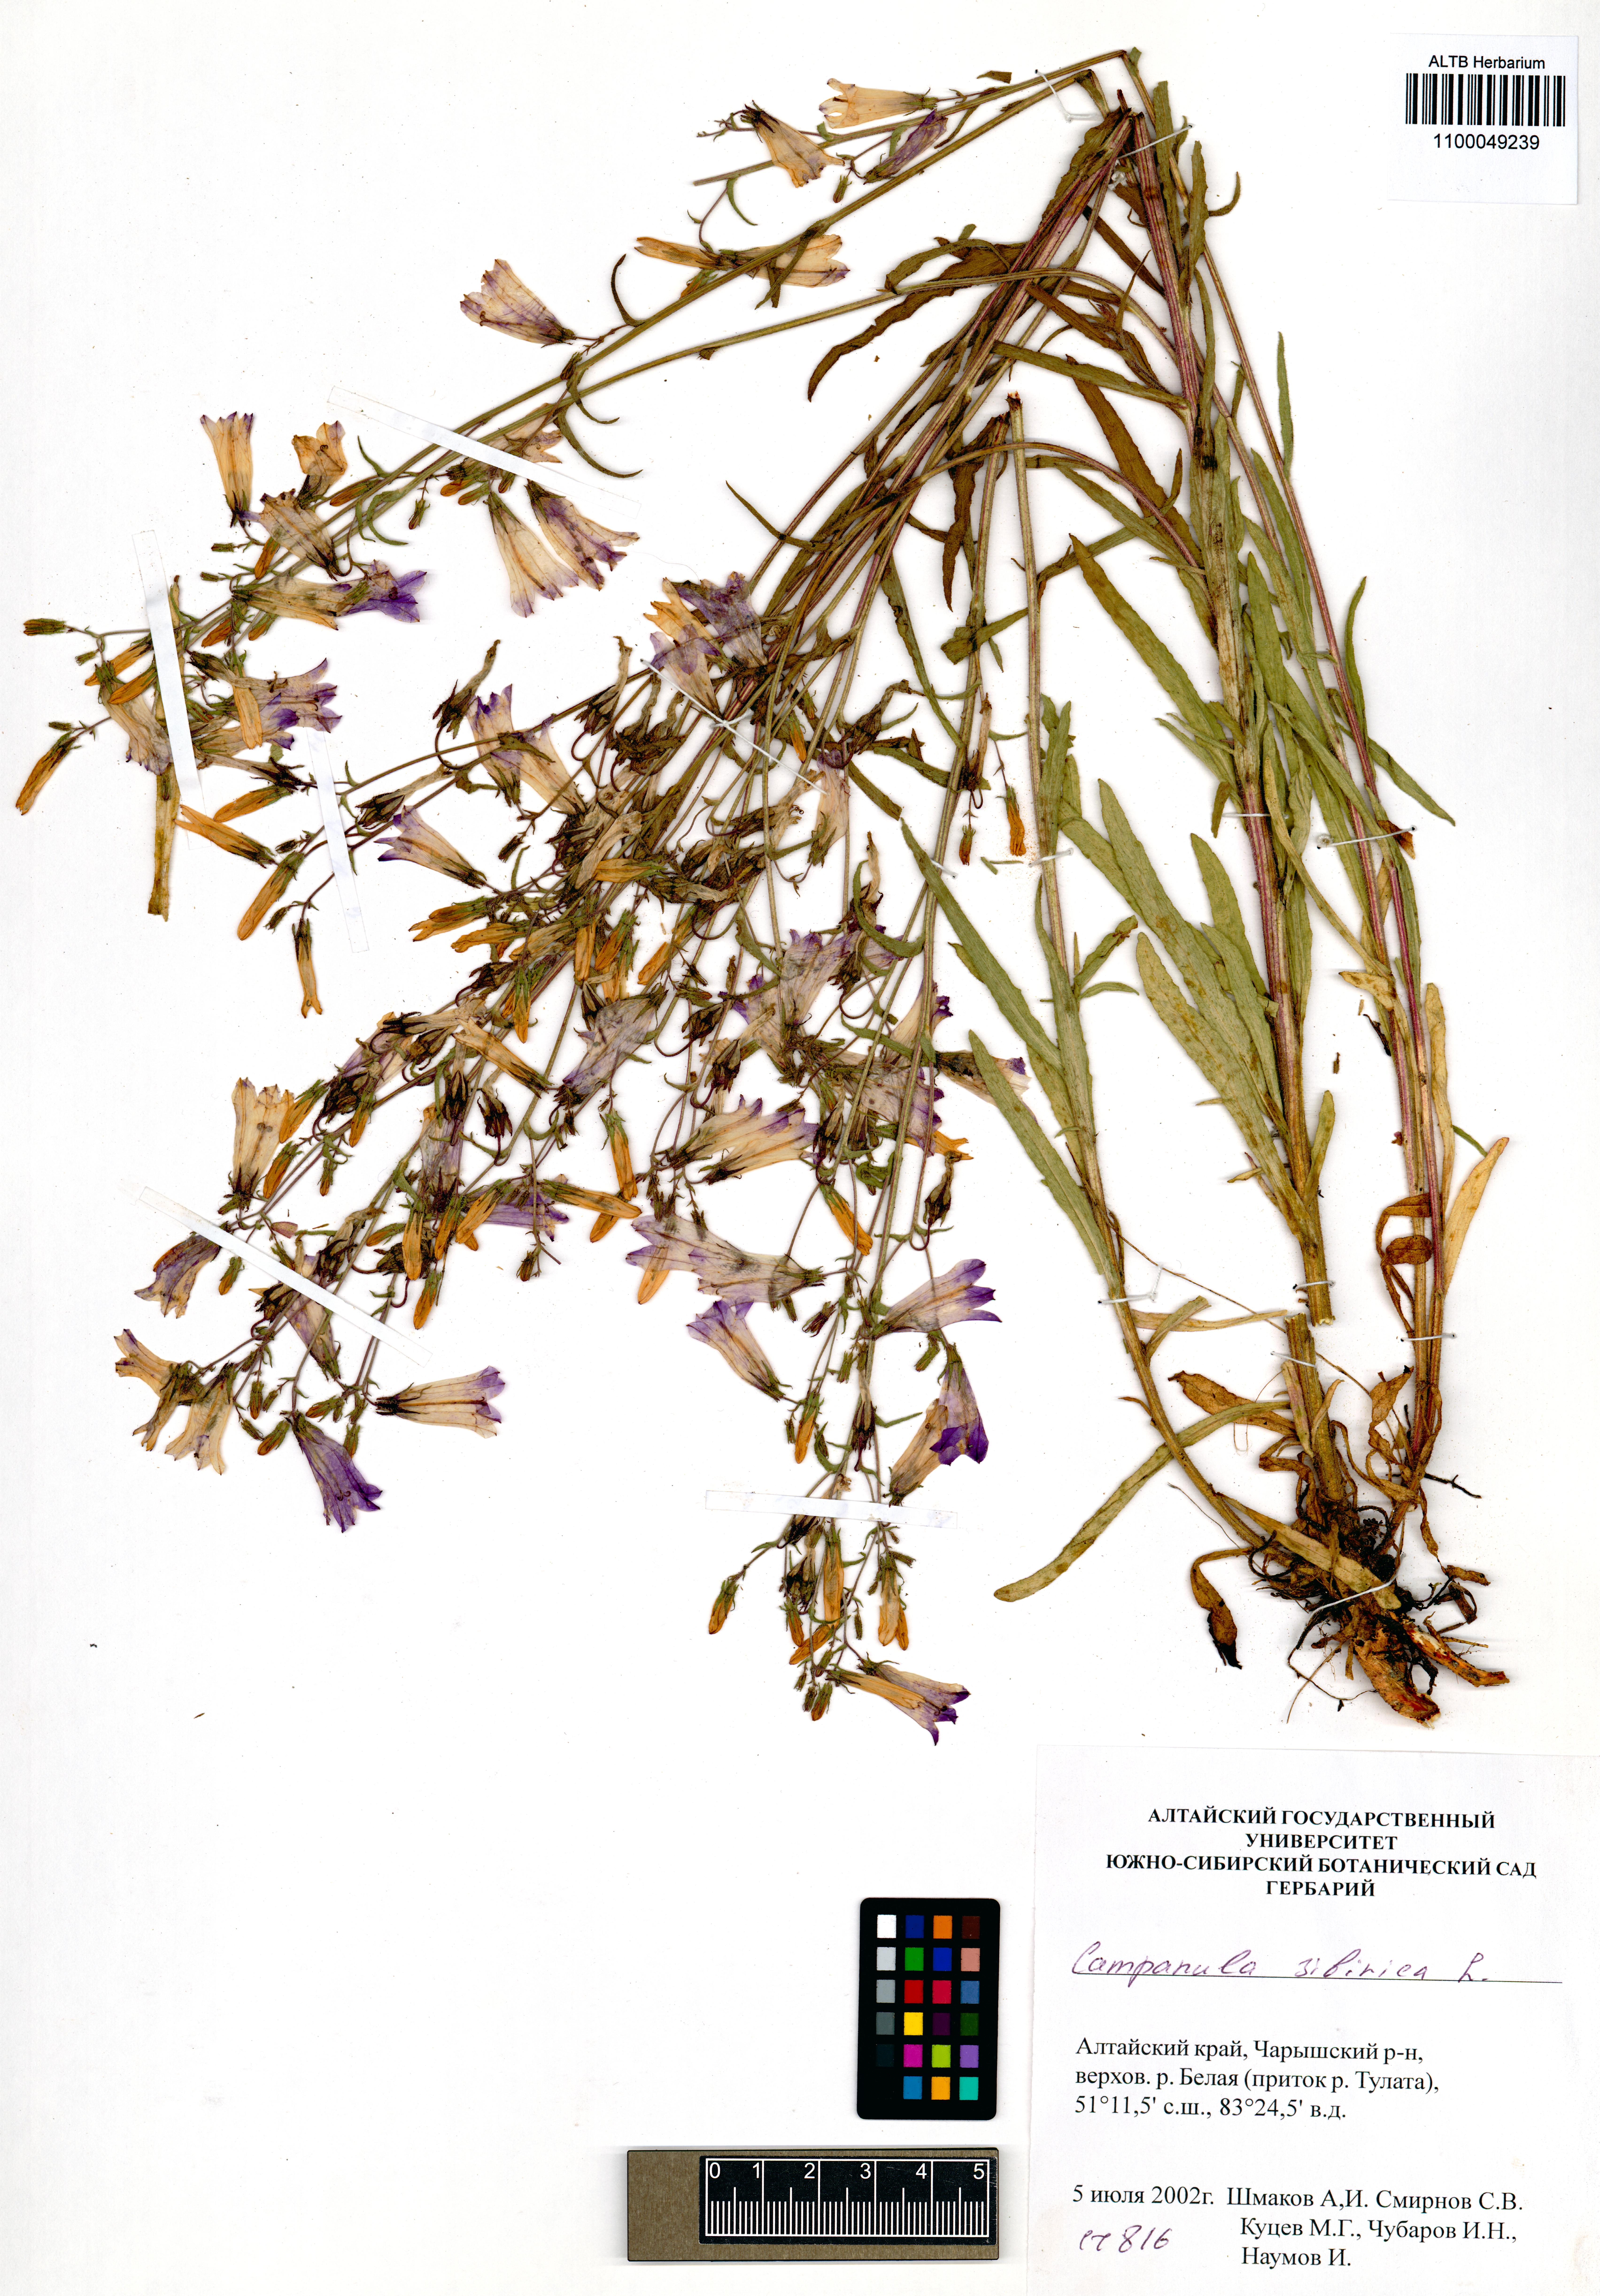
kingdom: Plantae
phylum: Tracheophyta
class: Magnoliopsida
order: Asterales
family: Campanulaceae
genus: Campanula
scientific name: Campanula sibirica
